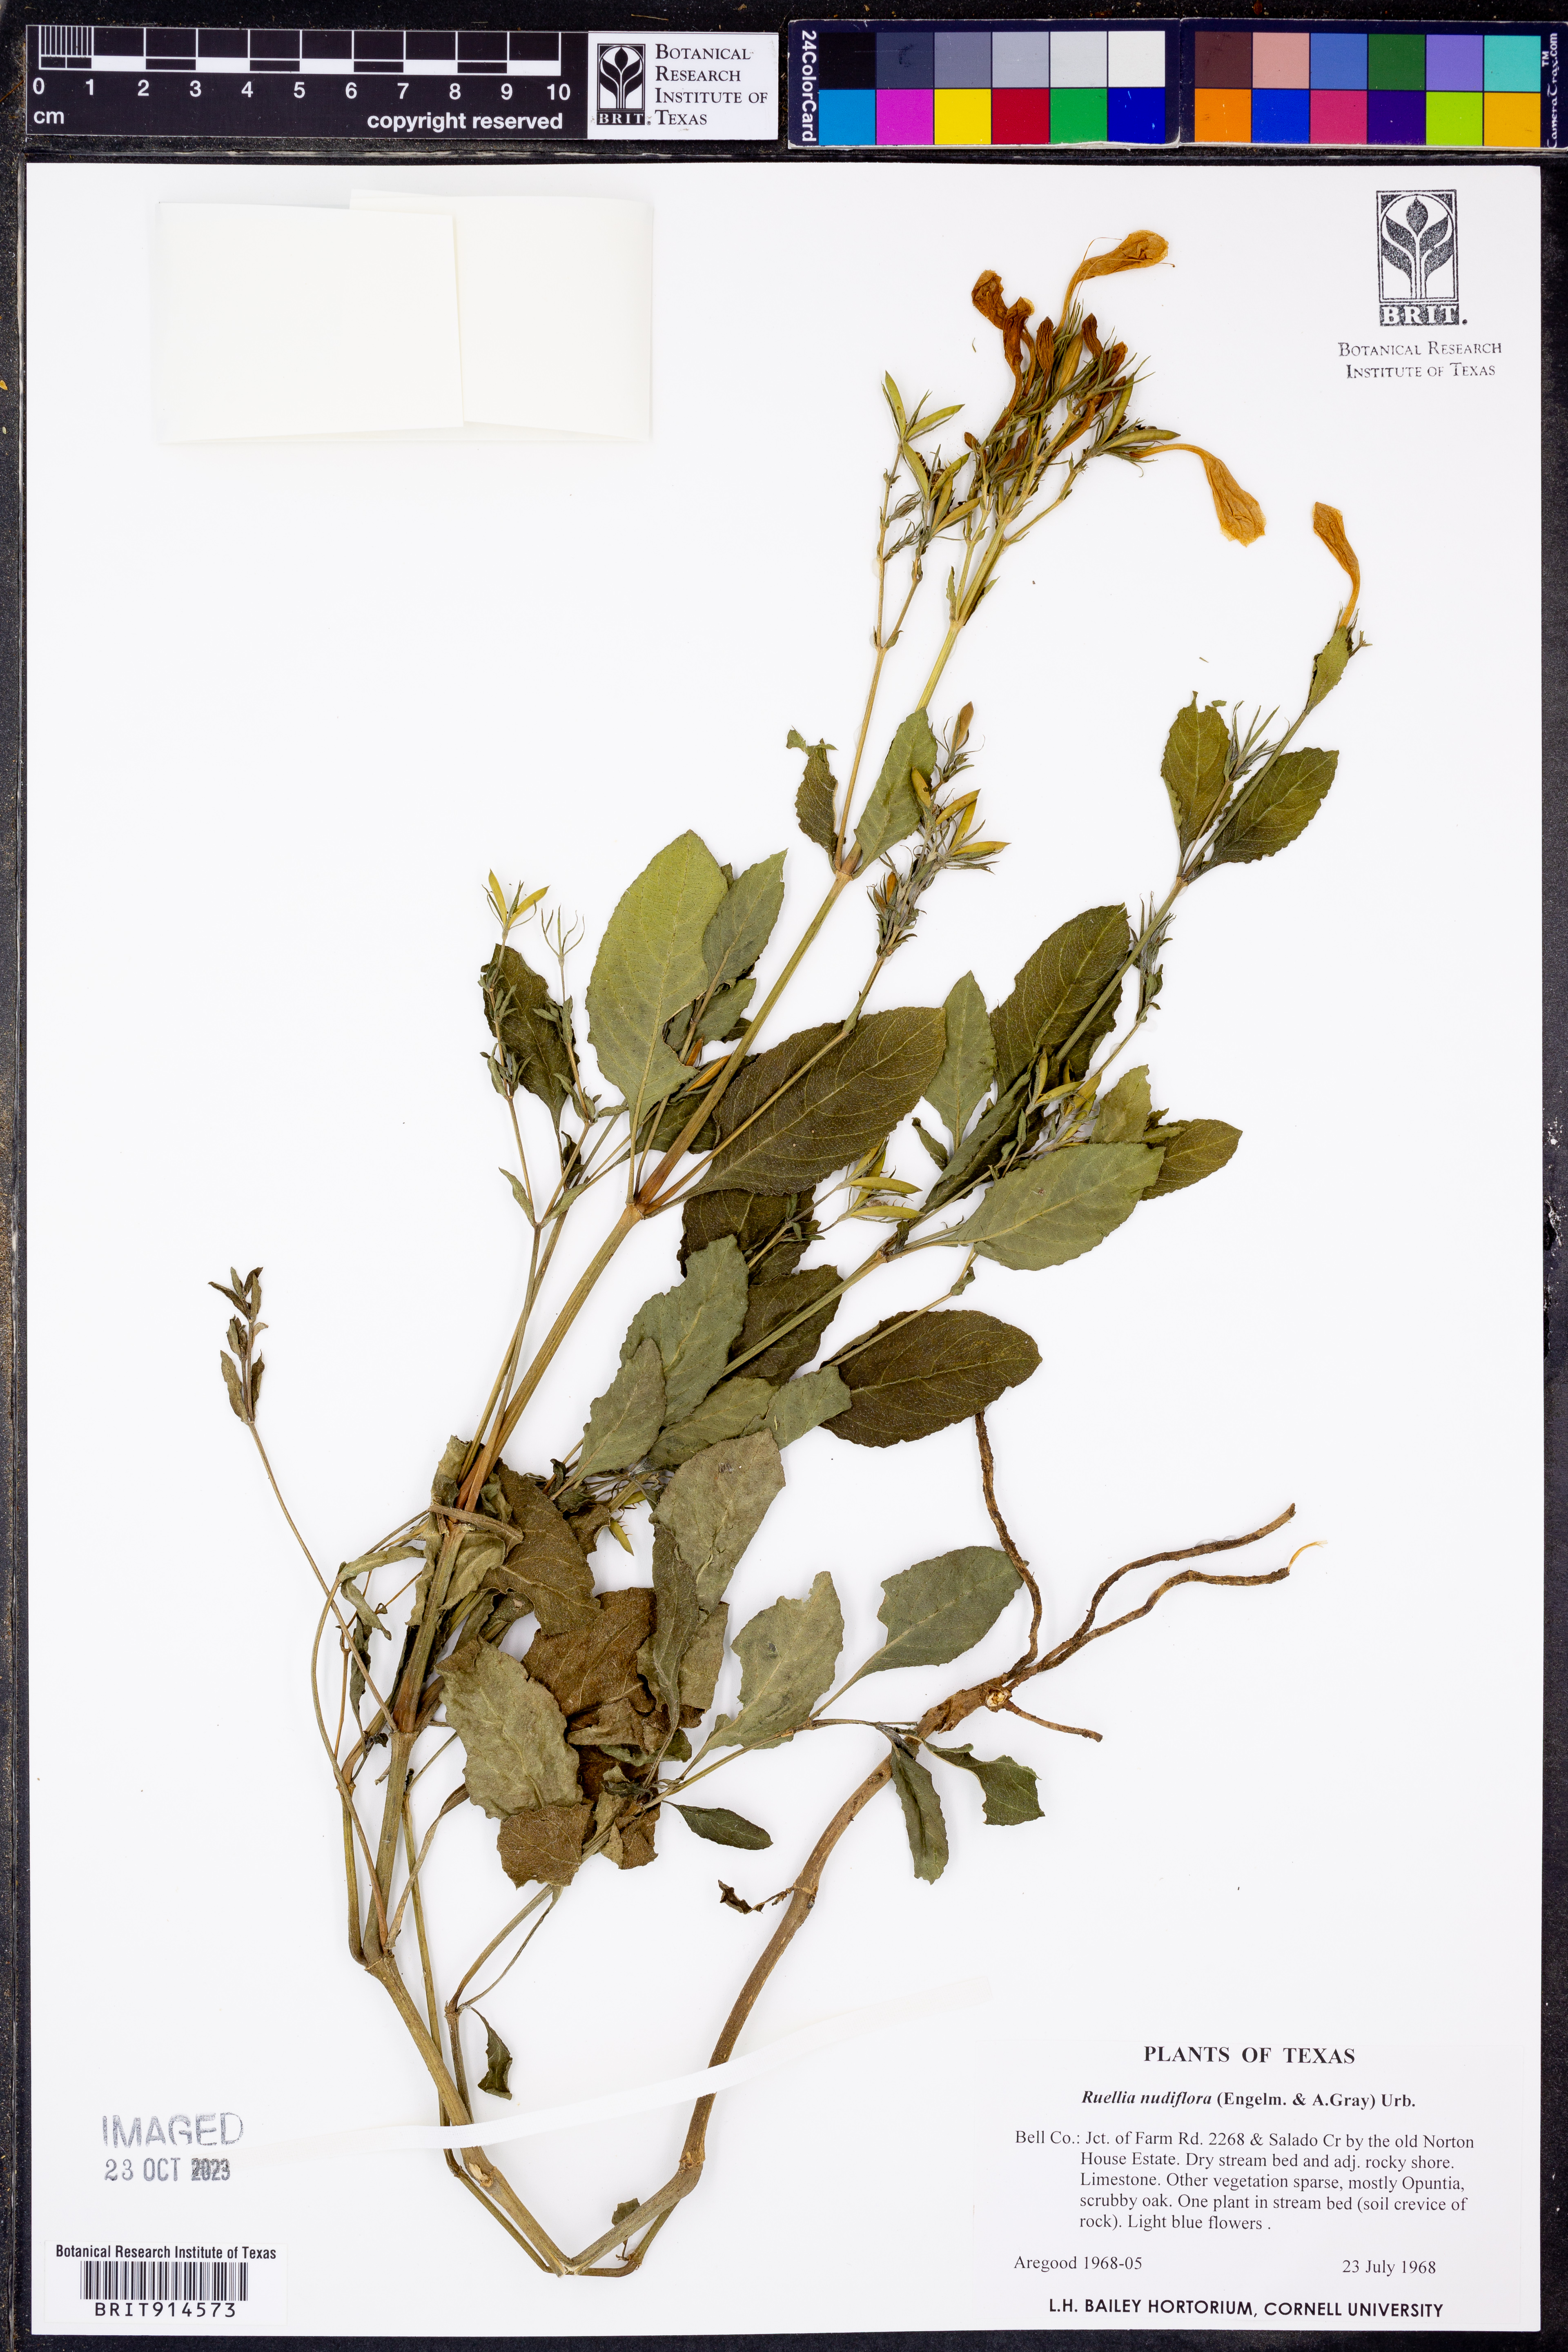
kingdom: Plantae
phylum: Tracheophyta
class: Magnoliopsida
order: Lamiales
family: Acanthaceae
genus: Ruellia
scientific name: Ruellia ciliatiflora
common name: Hairyflower wild petunia
